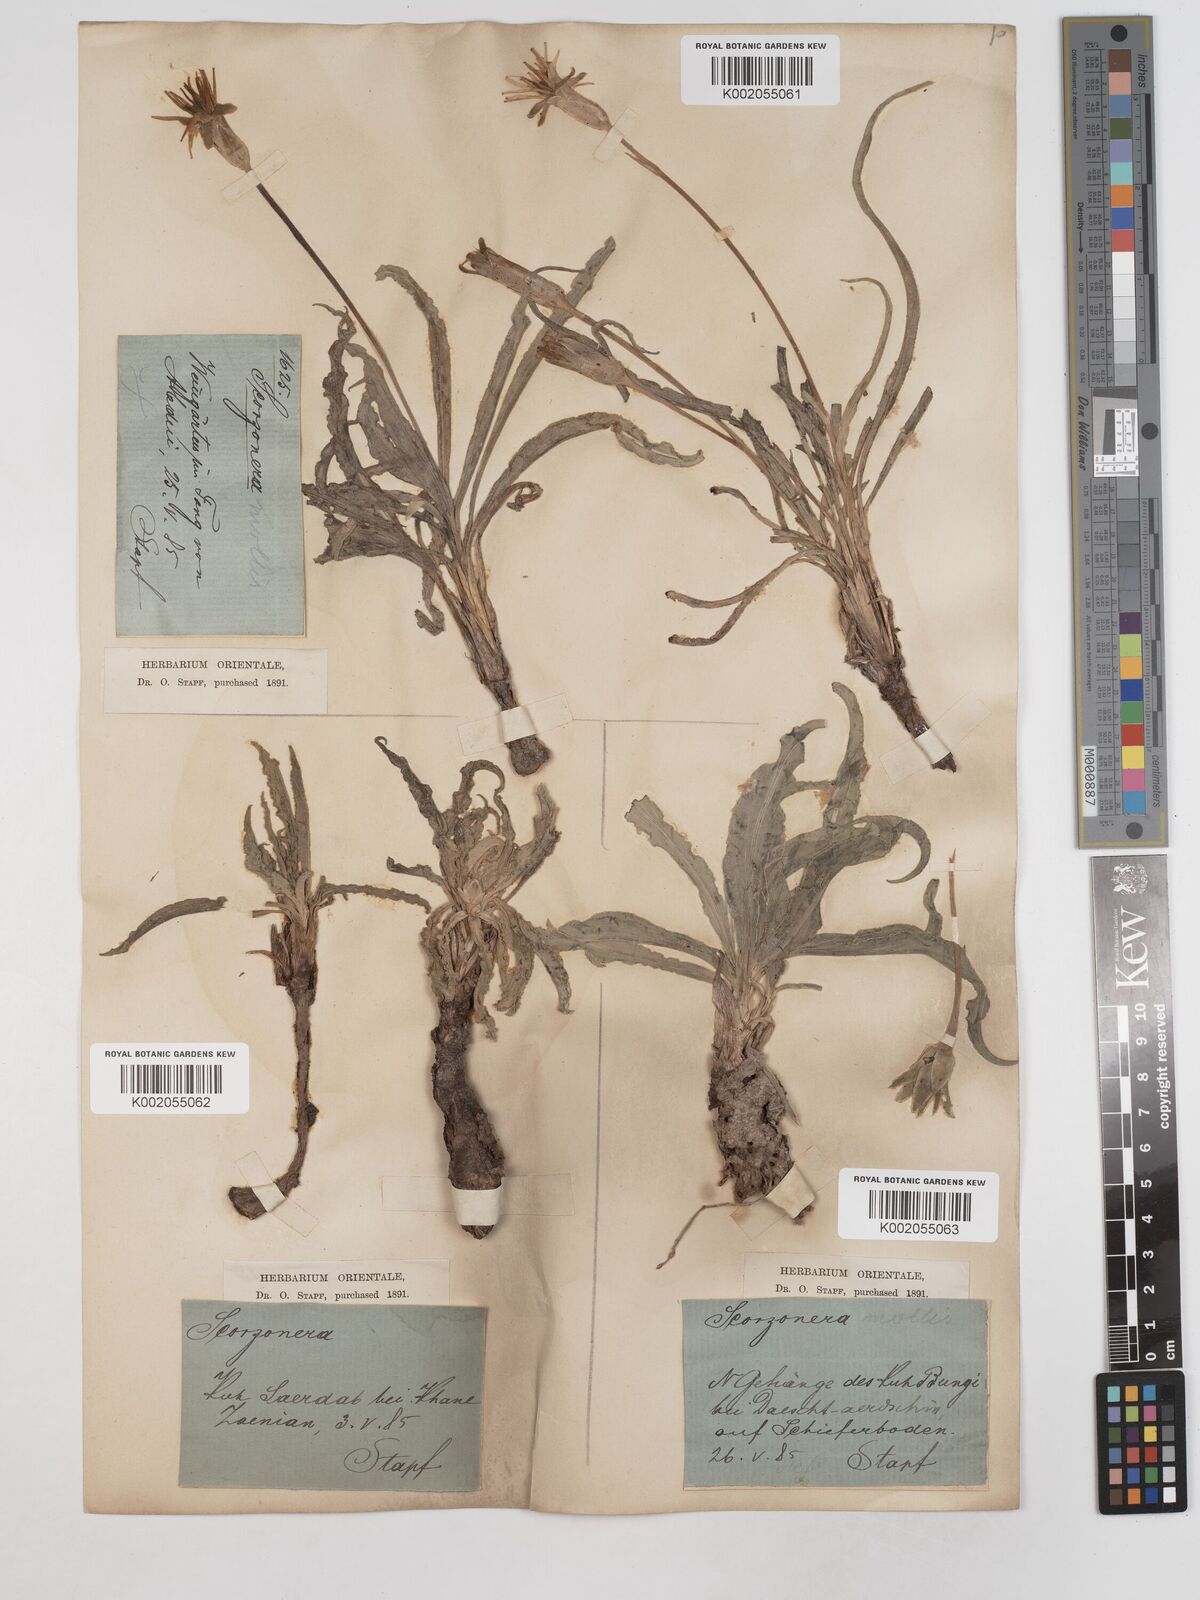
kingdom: Plantae
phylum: Tracheophyta
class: Magnoliopsida
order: Asterales
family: Asteraceae
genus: Candollea
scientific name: Candollea mollis
